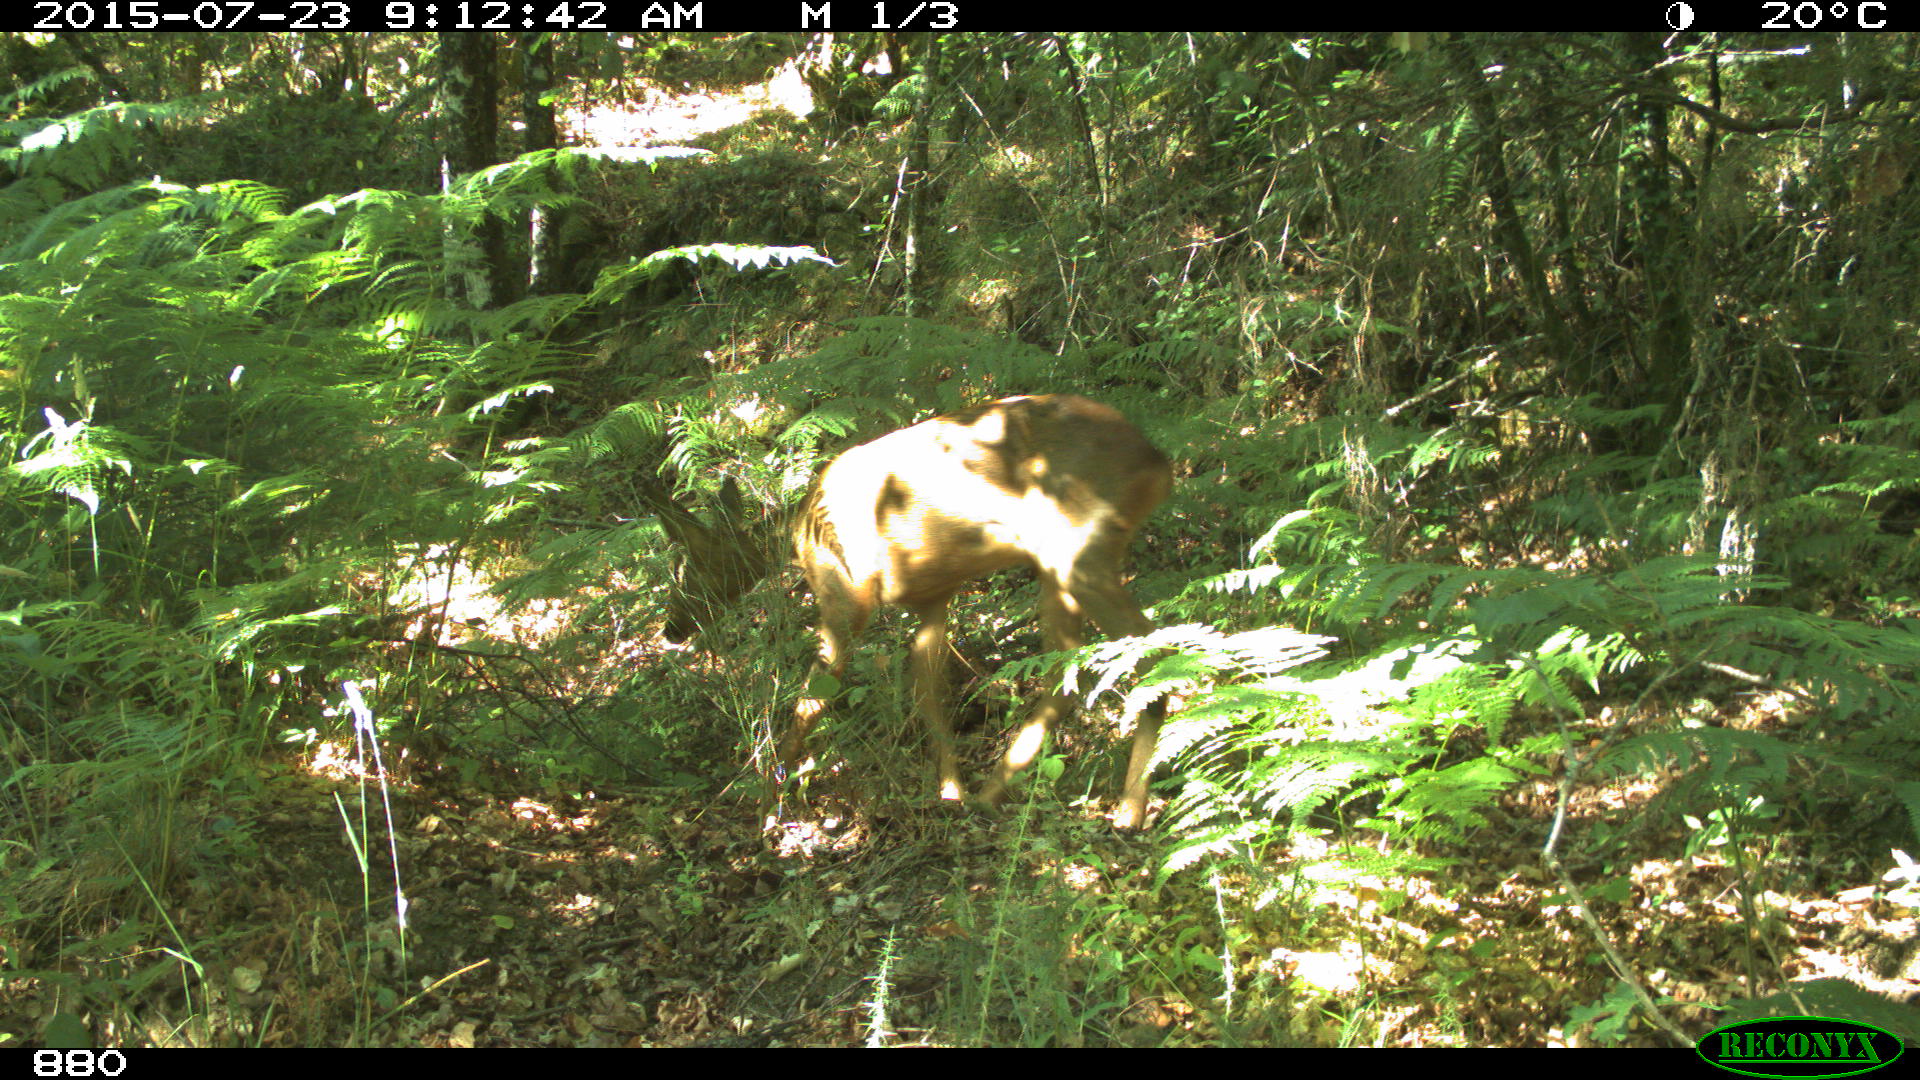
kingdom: Animalia
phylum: Chordata
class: Mammalia
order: Artiodactyla
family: Cervidae
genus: Capreolus
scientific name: Capreolus capreolus
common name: Western roe deer
